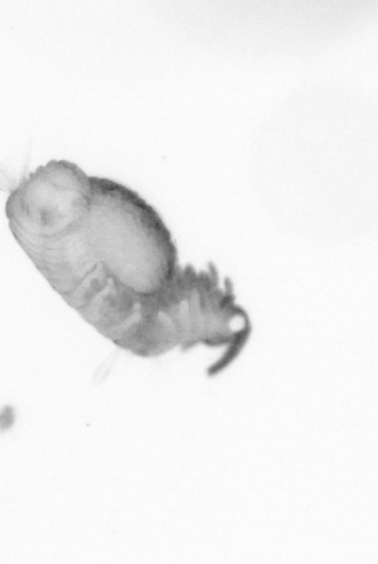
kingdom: Animalia
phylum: Annelida
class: Polychaeta
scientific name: Polychaeta
